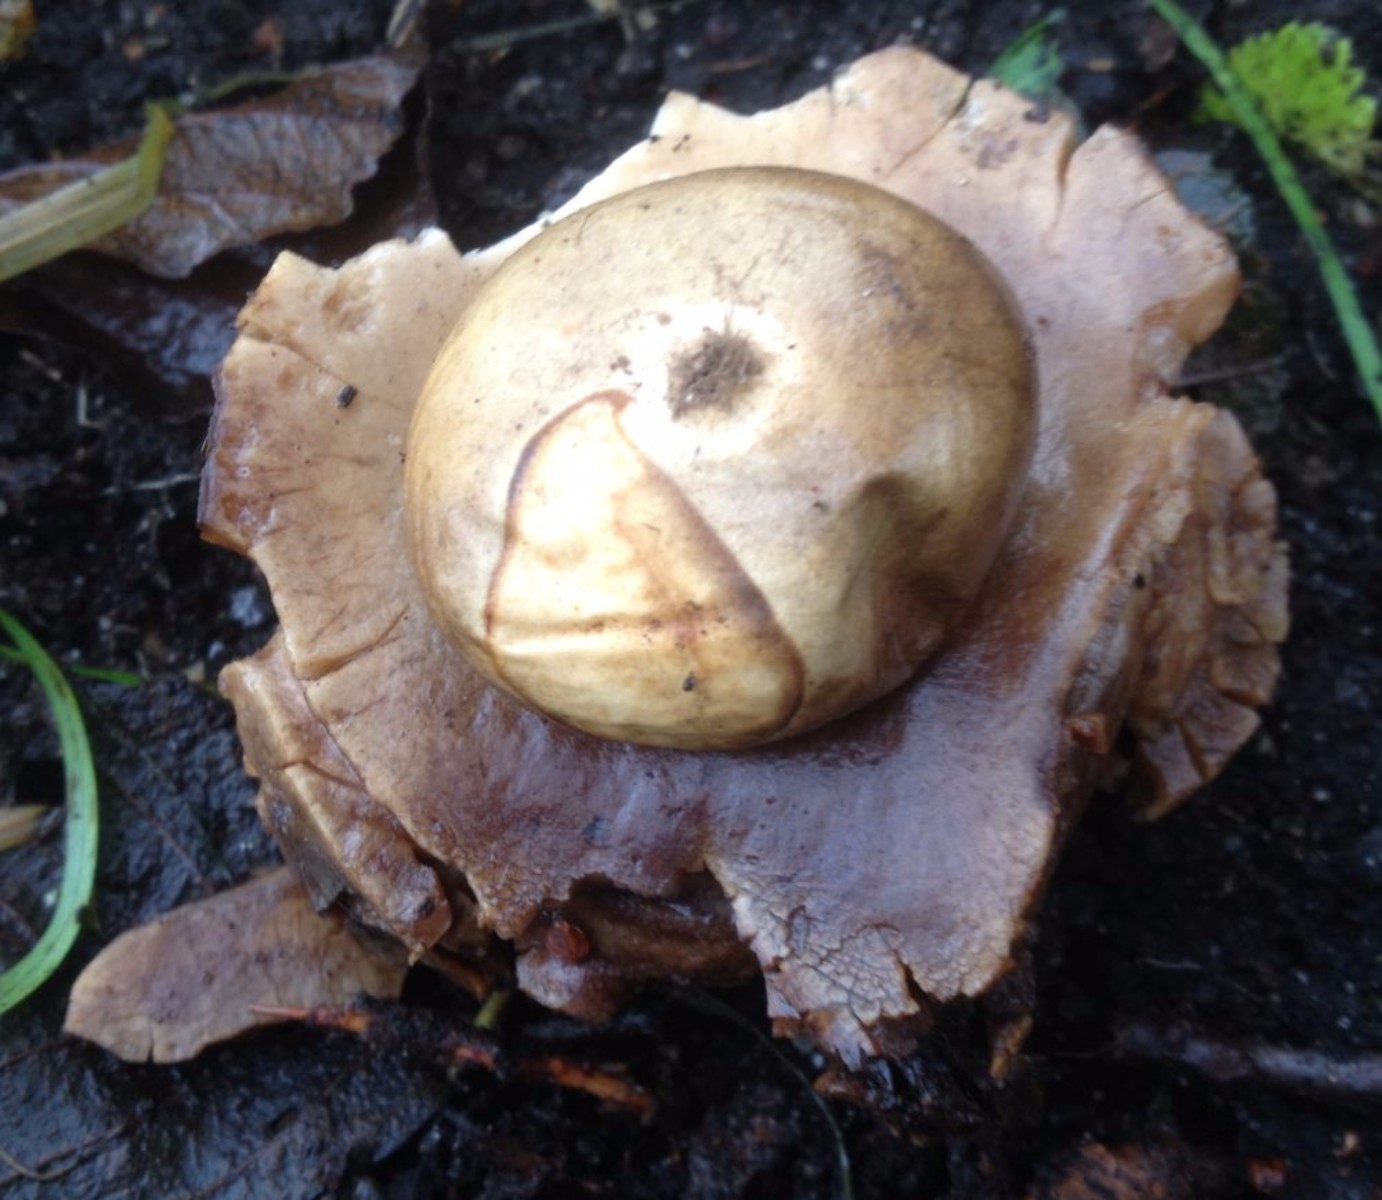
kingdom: Fungi
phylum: Basidiomycota
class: Agaricomycetes
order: Geastrales
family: Geastraceae
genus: Geastrum
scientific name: Geastrum michelianum
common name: kødet stjernebold
